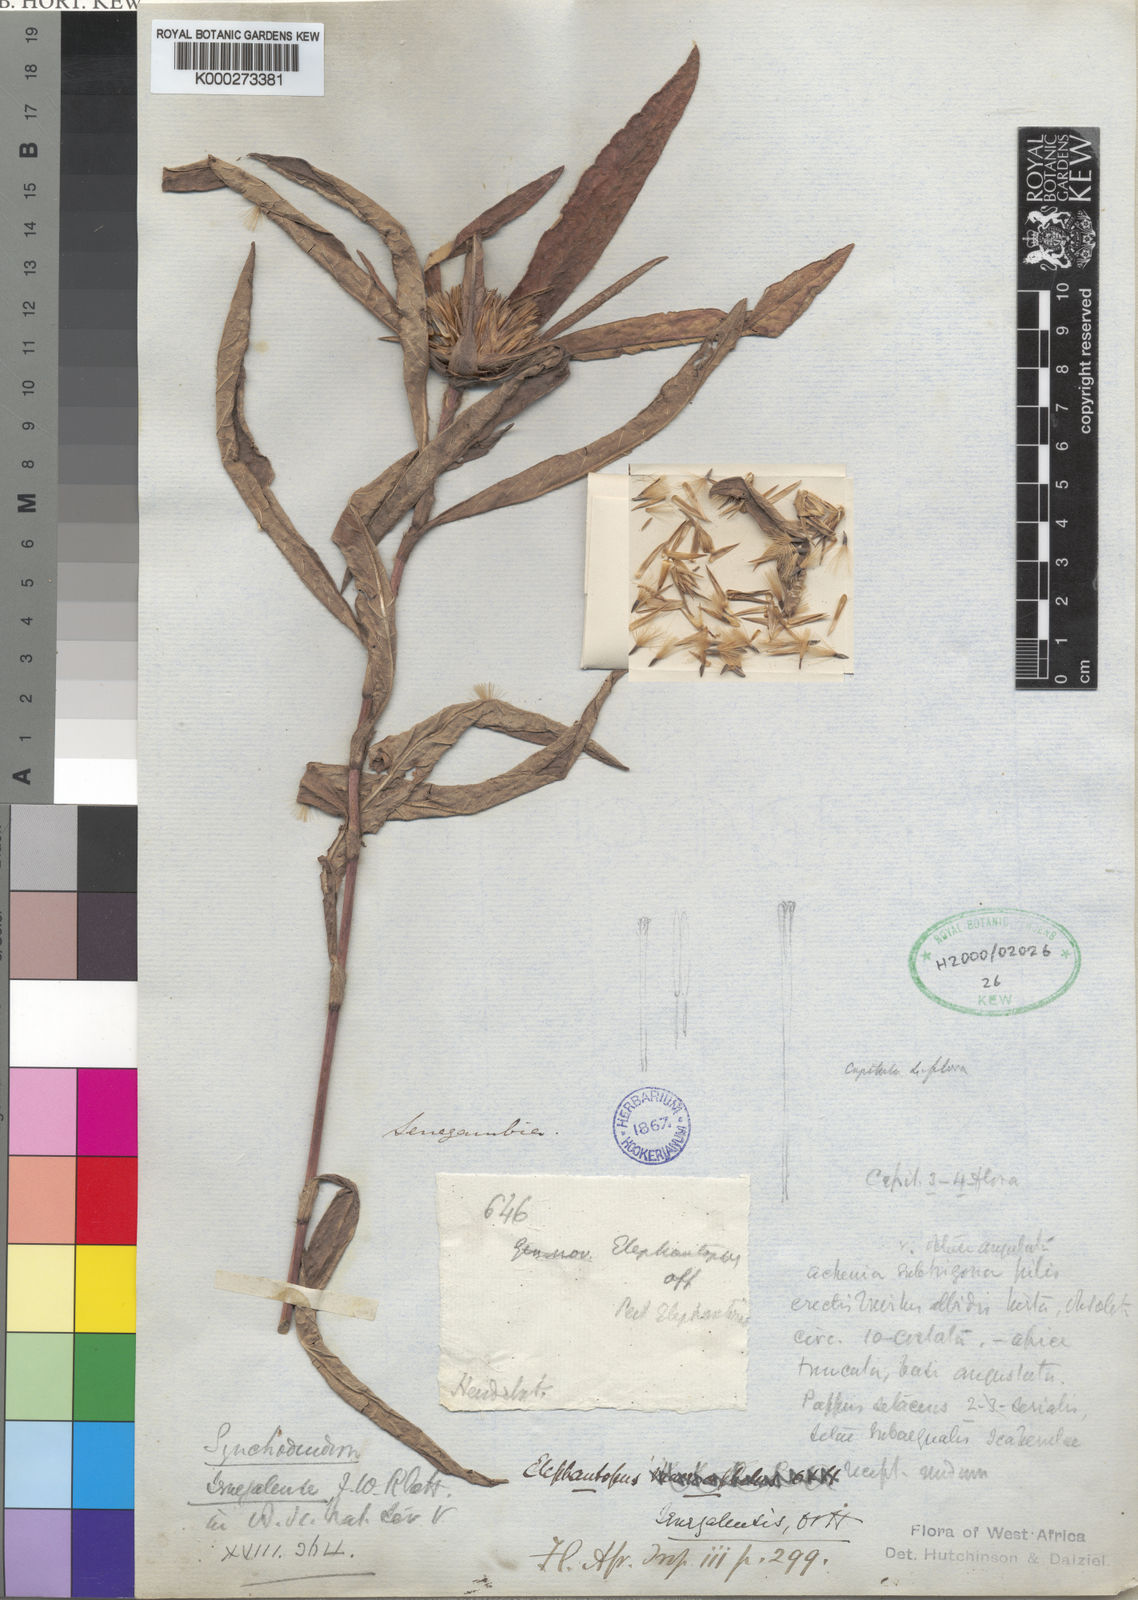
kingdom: Plantae
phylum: Tracheophyta
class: Magnoliopsida
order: Asterales
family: Asteraceae
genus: Elephantopus
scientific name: Elephantopus senegalensis
